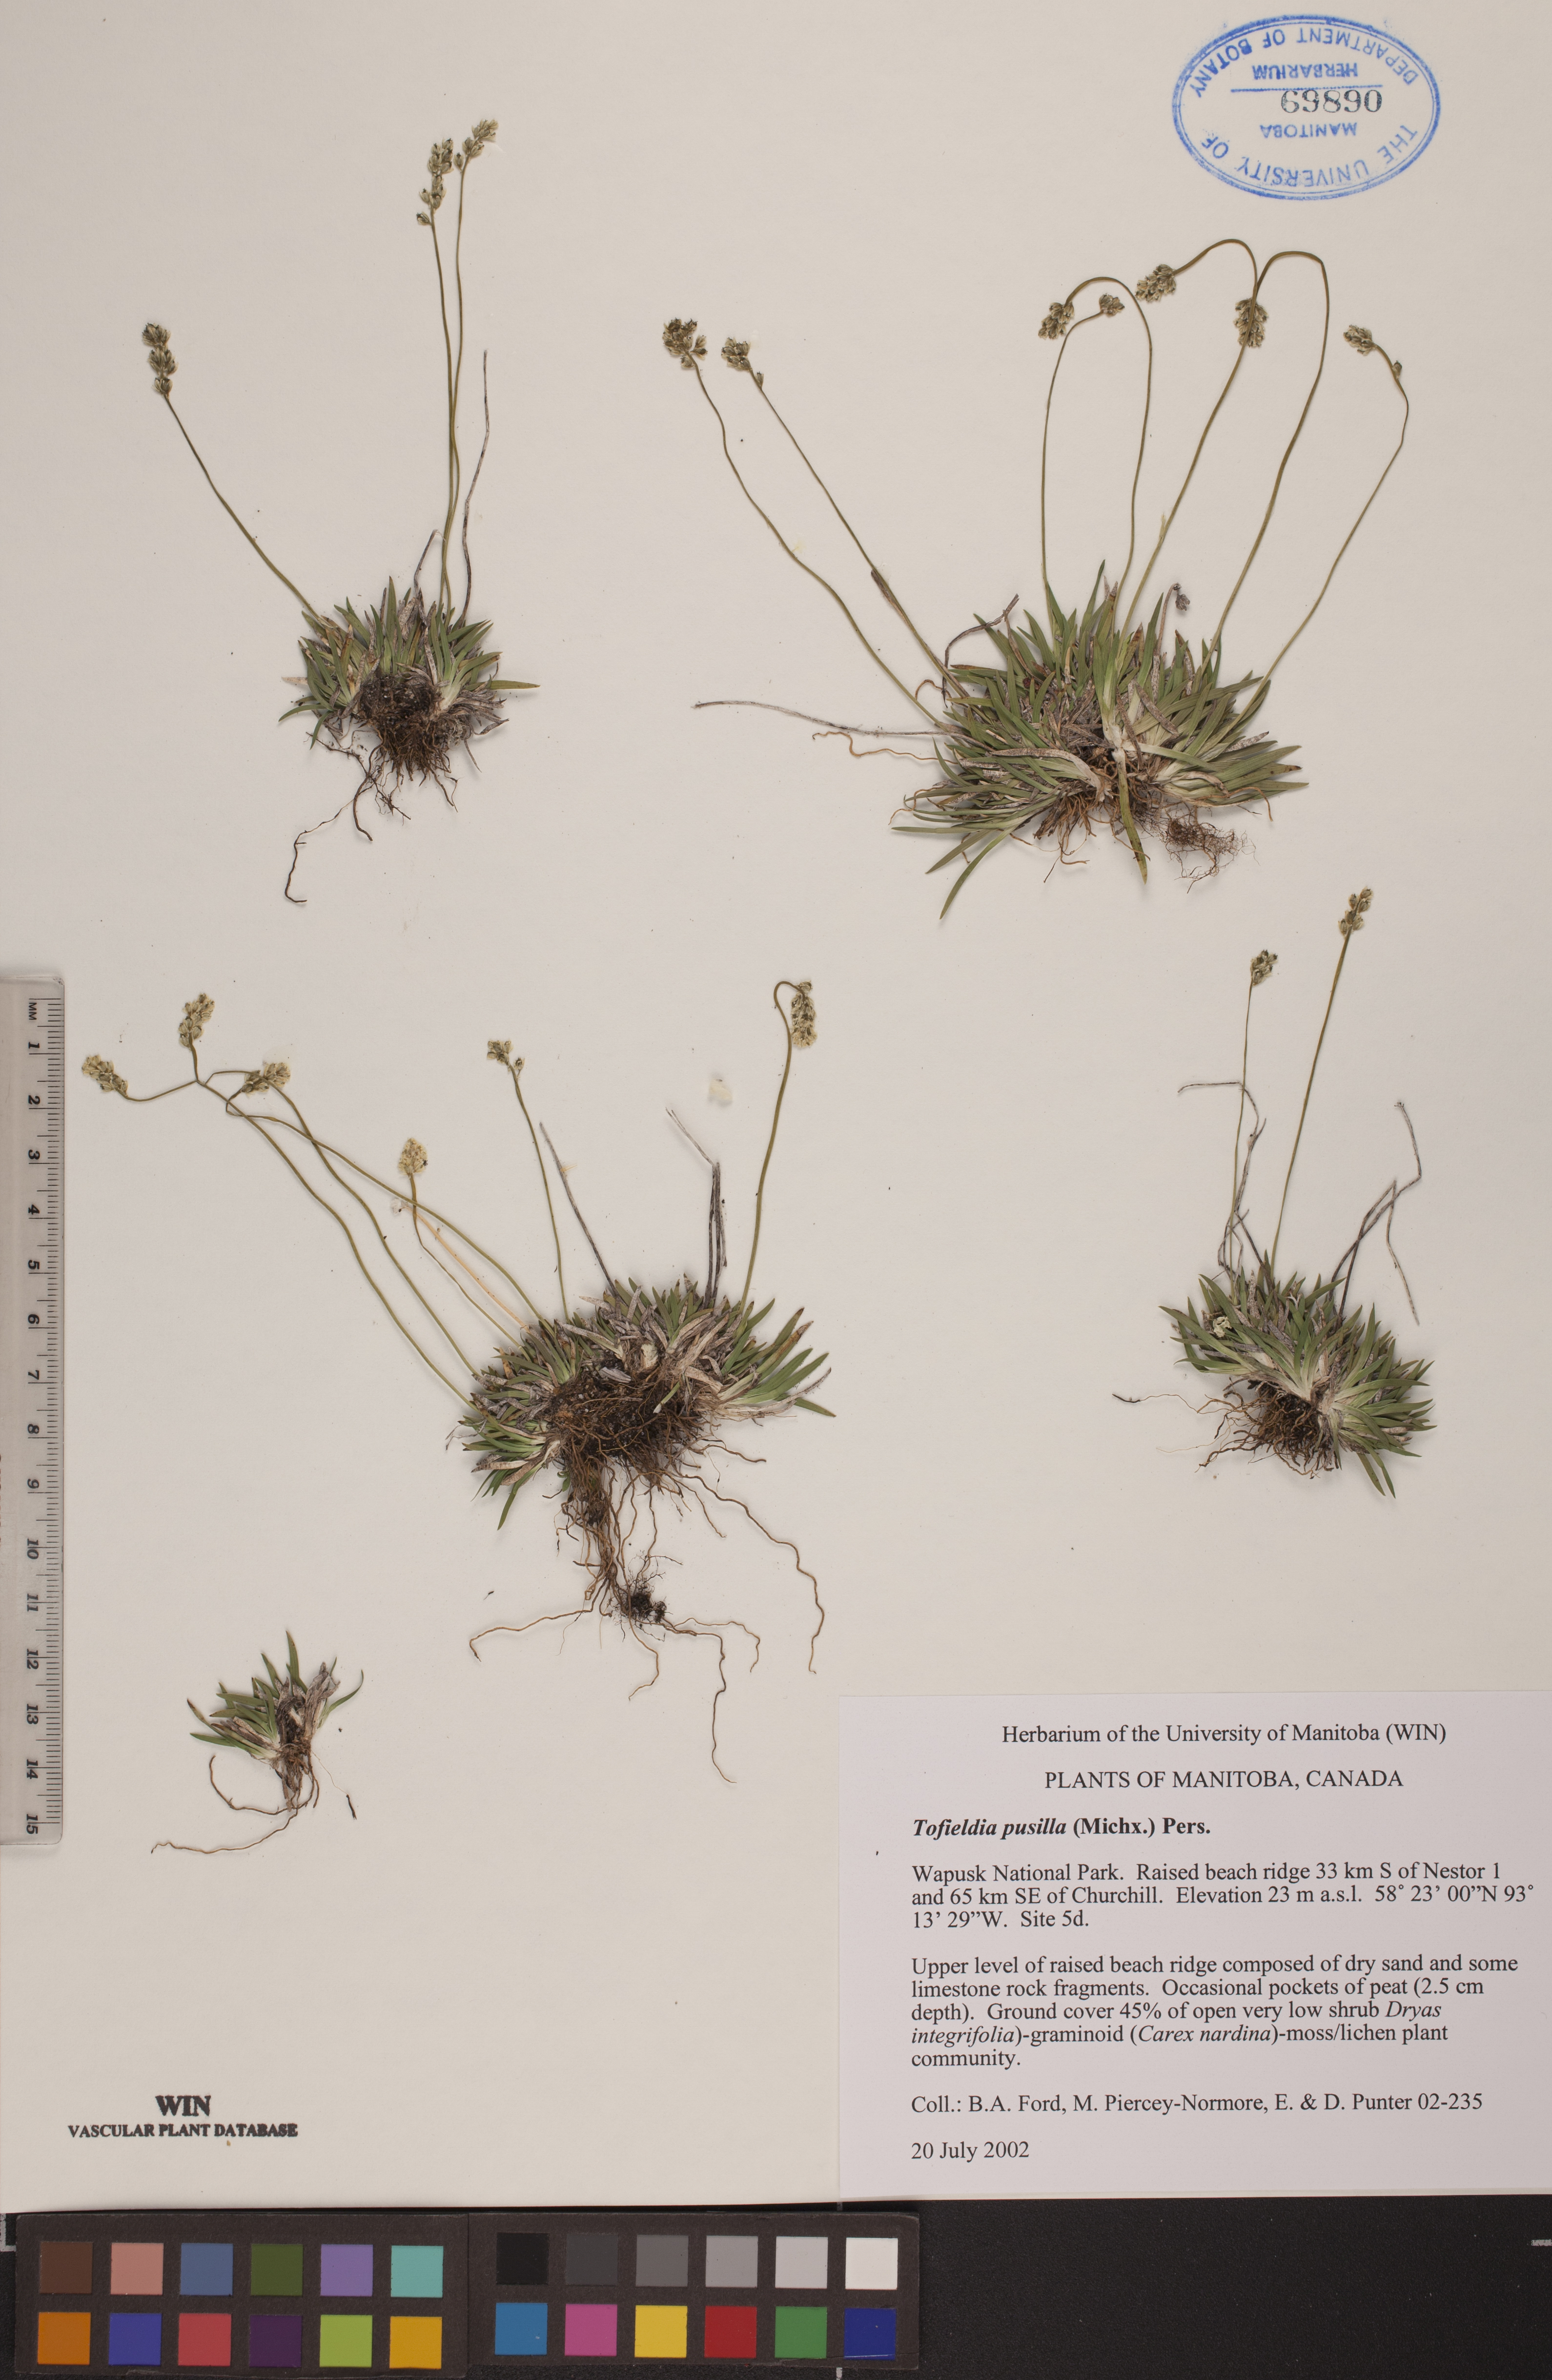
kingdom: Plantae
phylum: Tracheophyta
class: Liliopsida
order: Alismatales
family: Tofieldiaceae
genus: Tofieldia
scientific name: Tofieldia pusilla
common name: Scottish false asphodel
